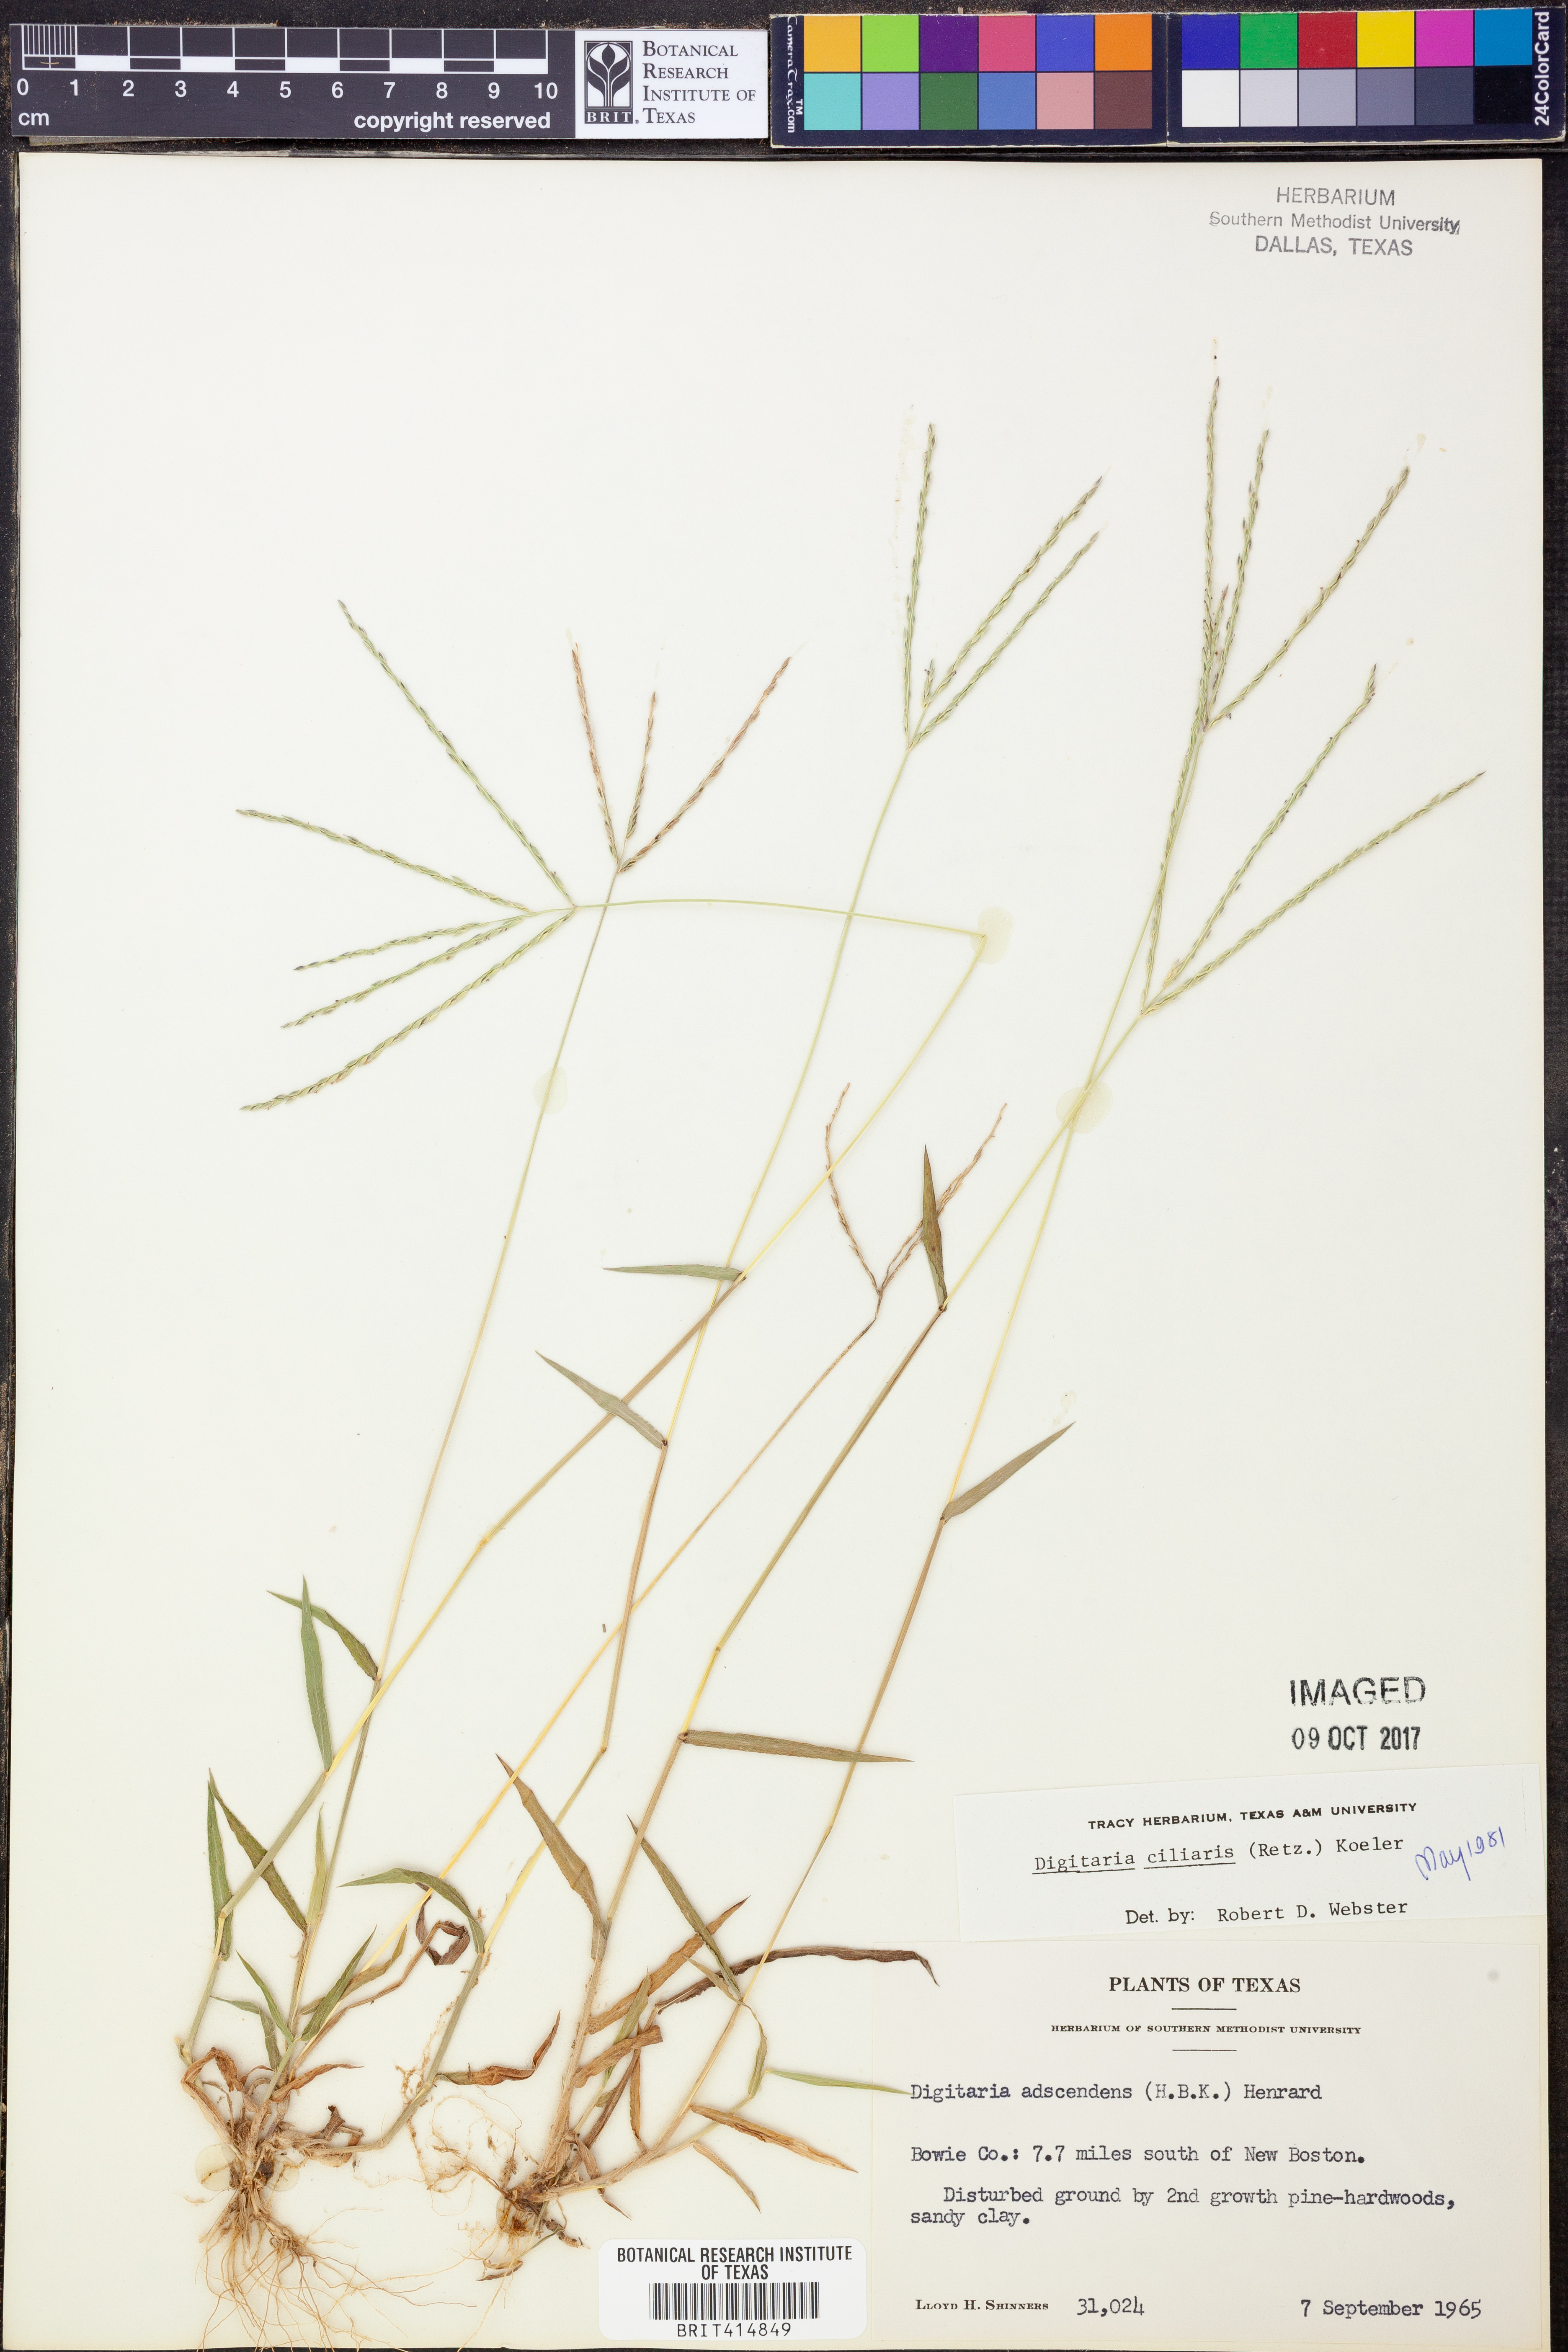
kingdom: Plantae
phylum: Tracheophyta
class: Liliopsida
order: Poales
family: Poaceae
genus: Digitaria
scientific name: Digitaria ciliaris
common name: Tropical finger-grass
